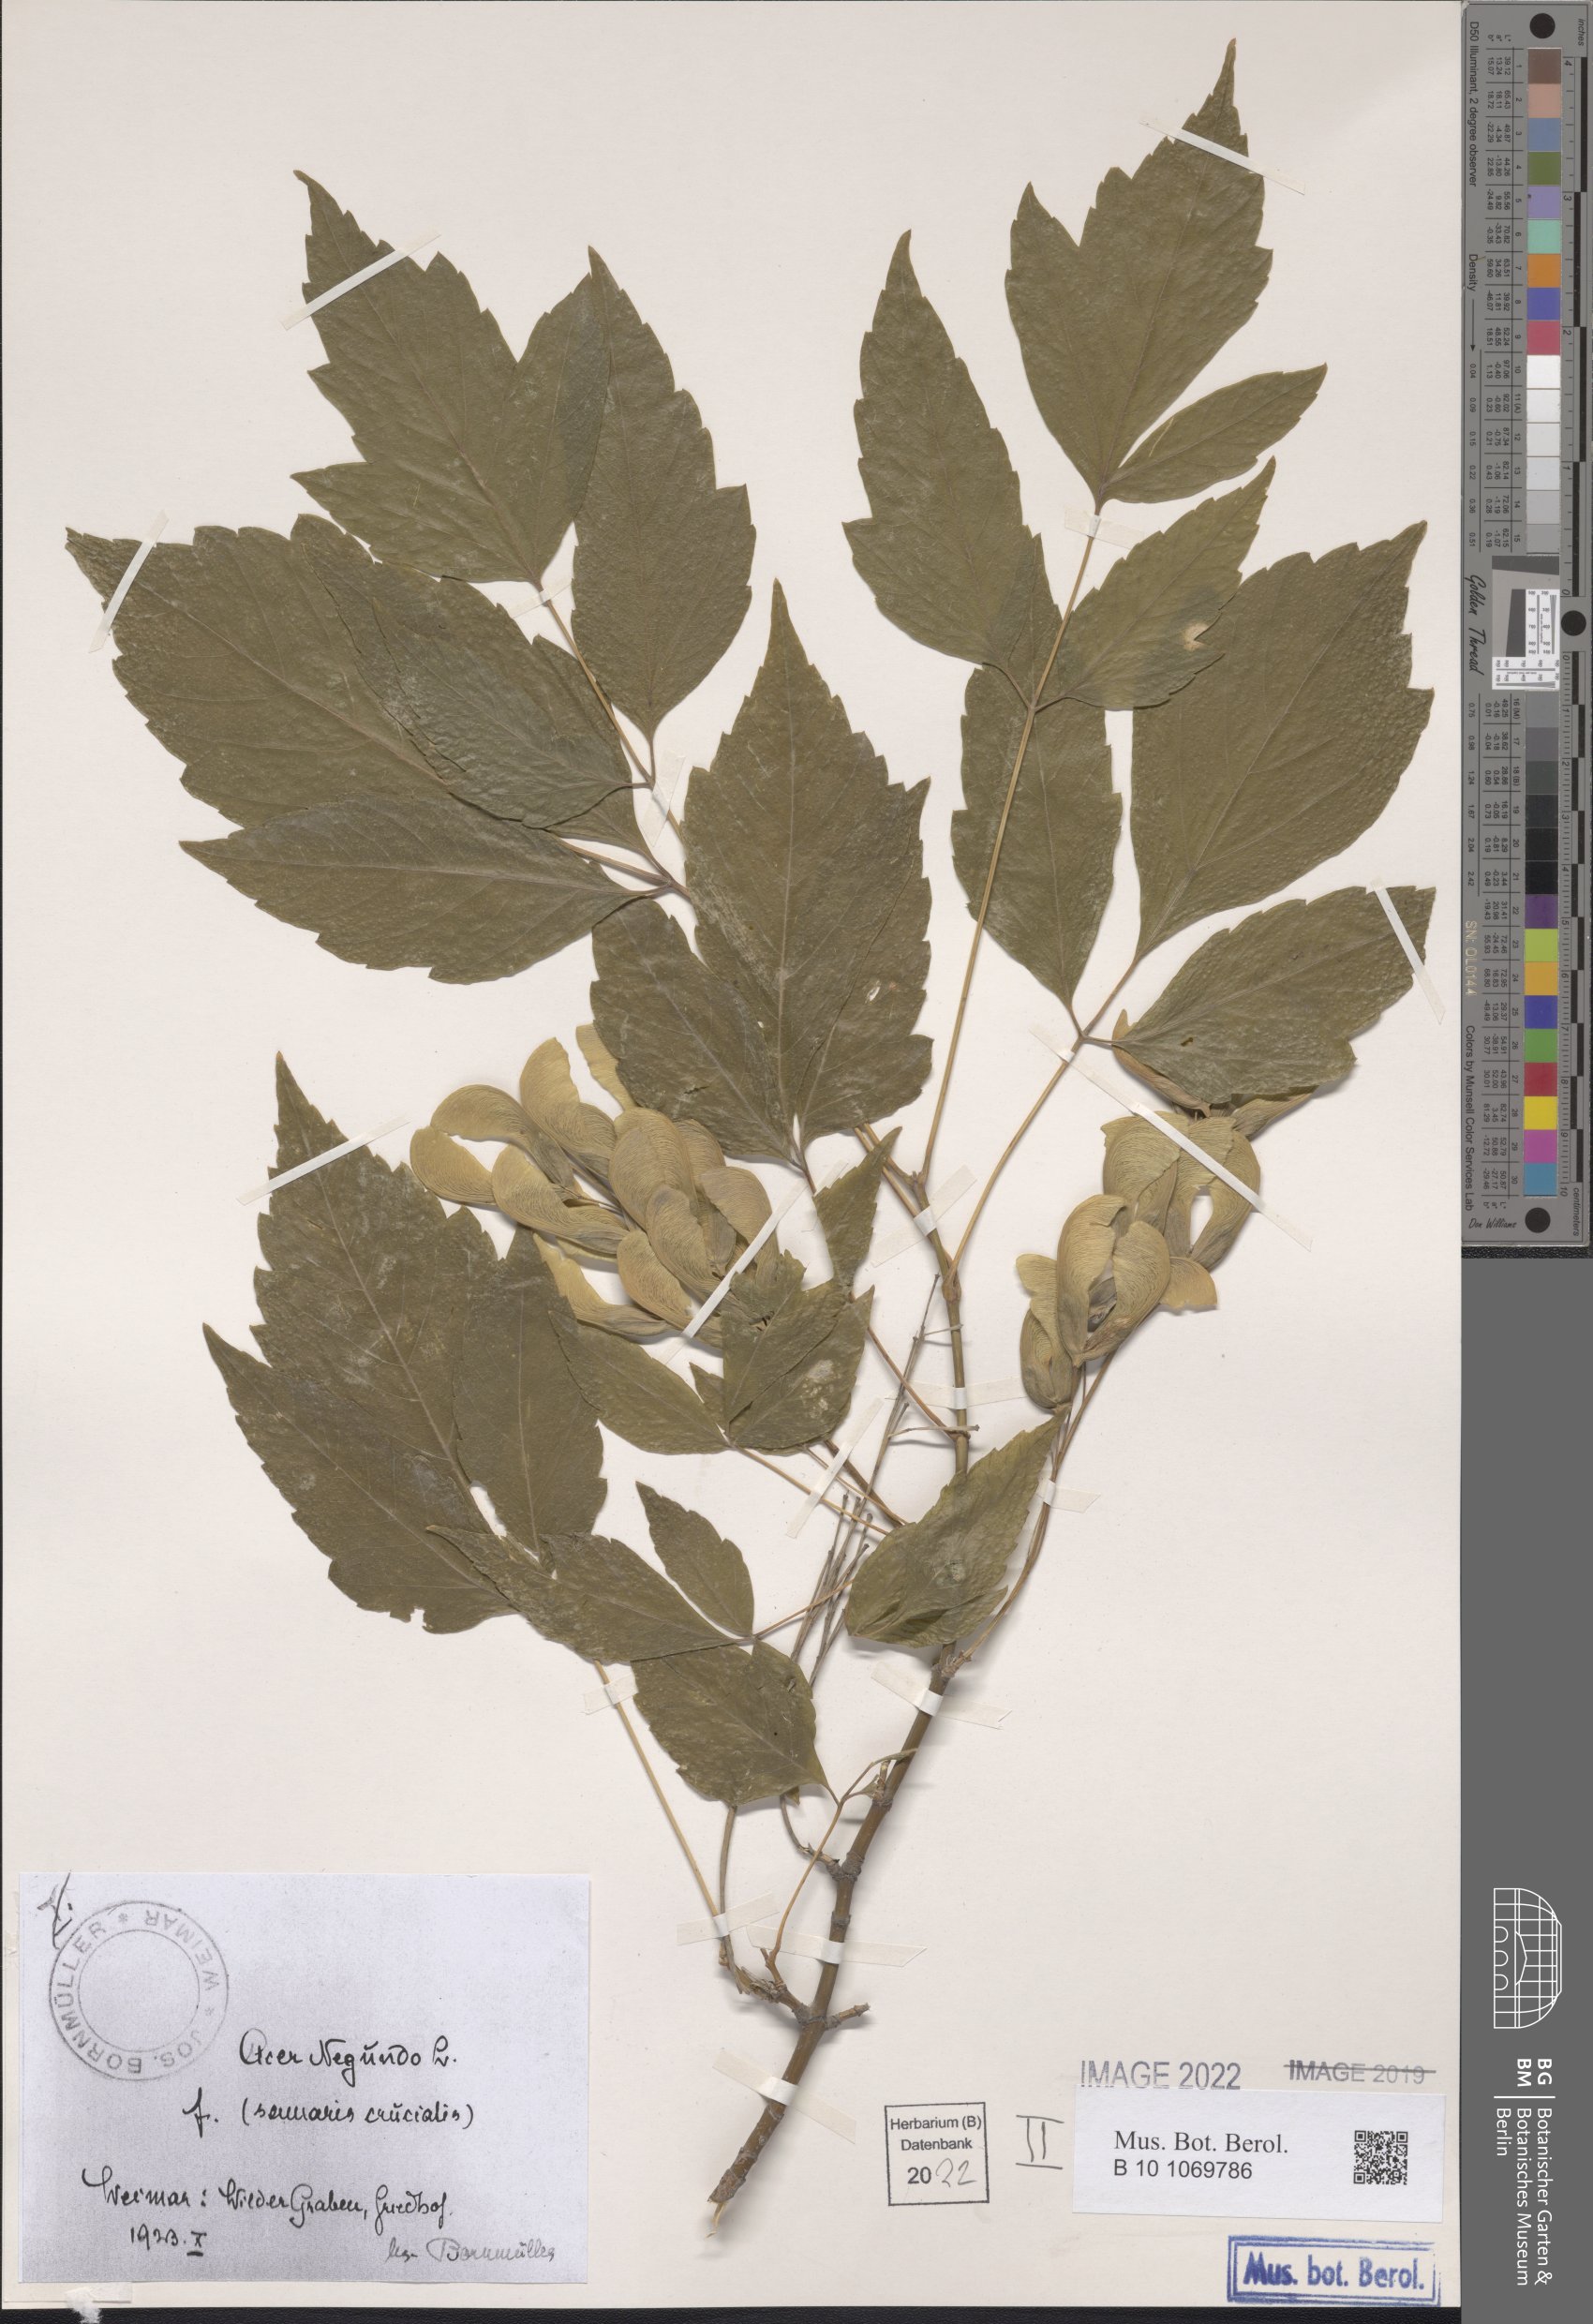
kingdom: Plantae
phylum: Tracheophyta
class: Magnoliopsida
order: Sapindales
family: Sapindaceae
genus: Acer
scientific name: Acer negundo
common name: Ashleaf maple
